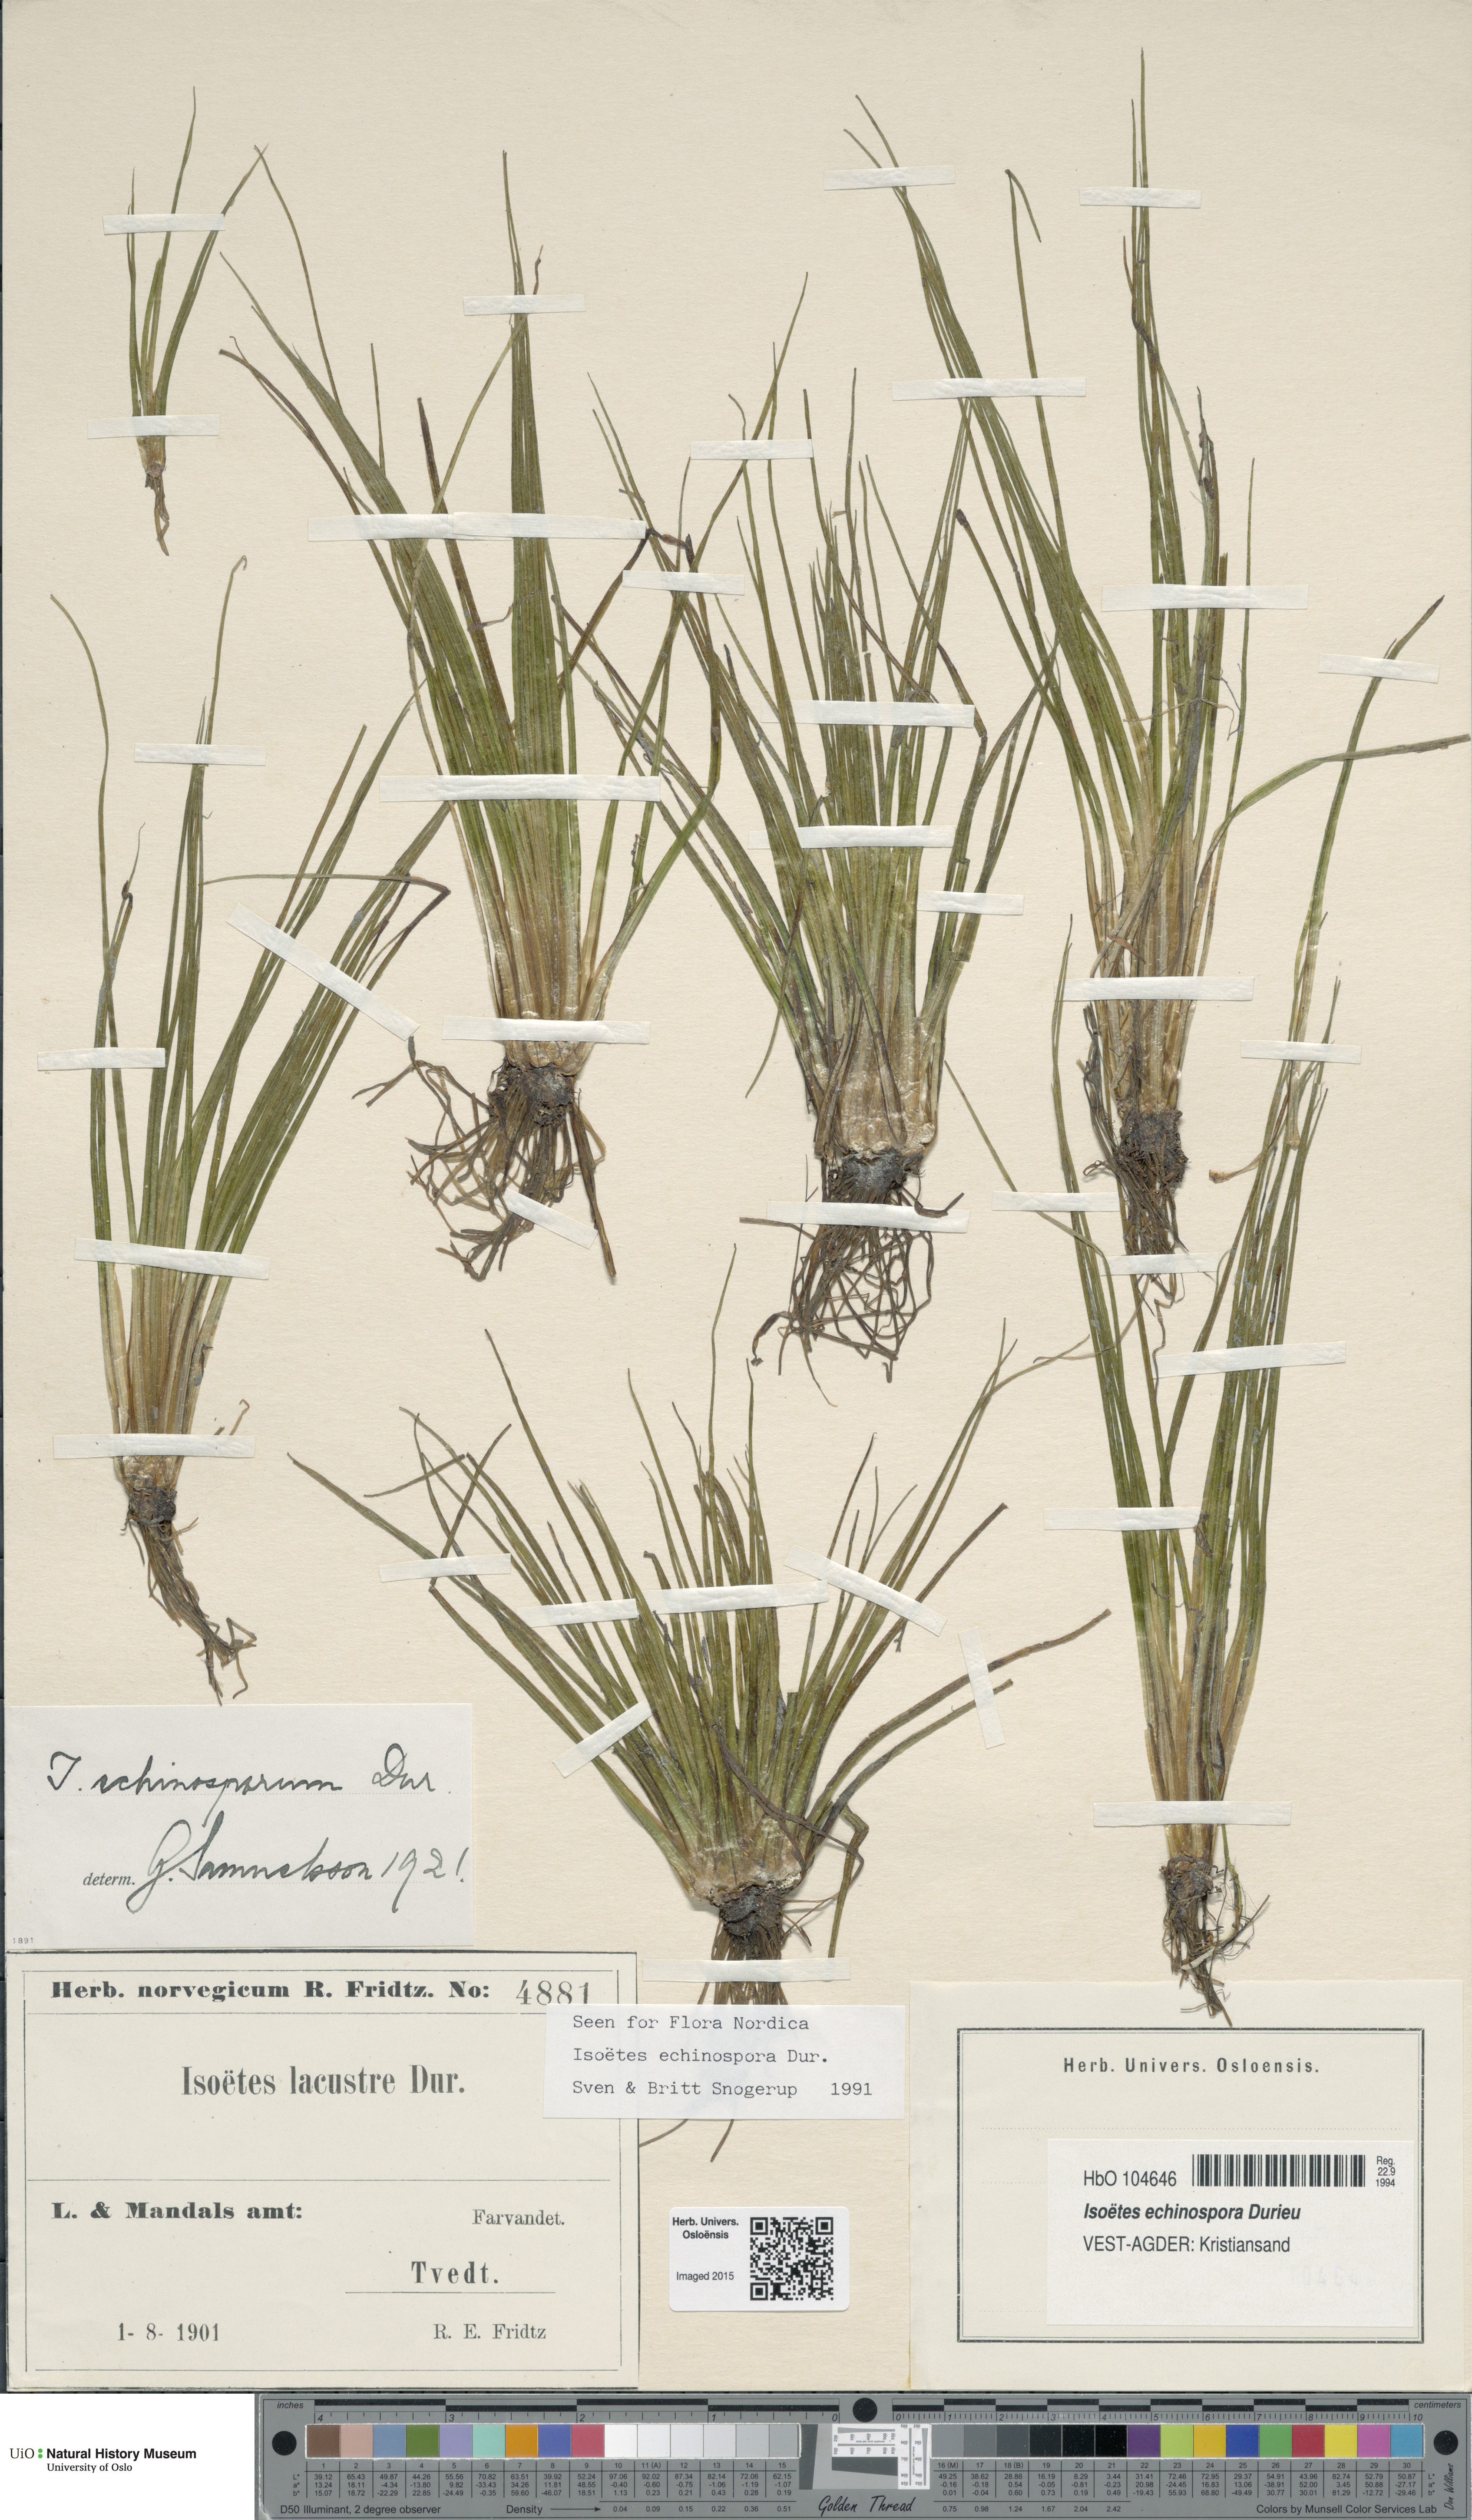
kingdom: Plantae
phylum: Tracheophyta
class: Lycopodiopsida
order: Isoetales
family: Isoetaceae
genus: Isoetes
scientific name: Isoetes echinospora
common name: Spring quillwort
